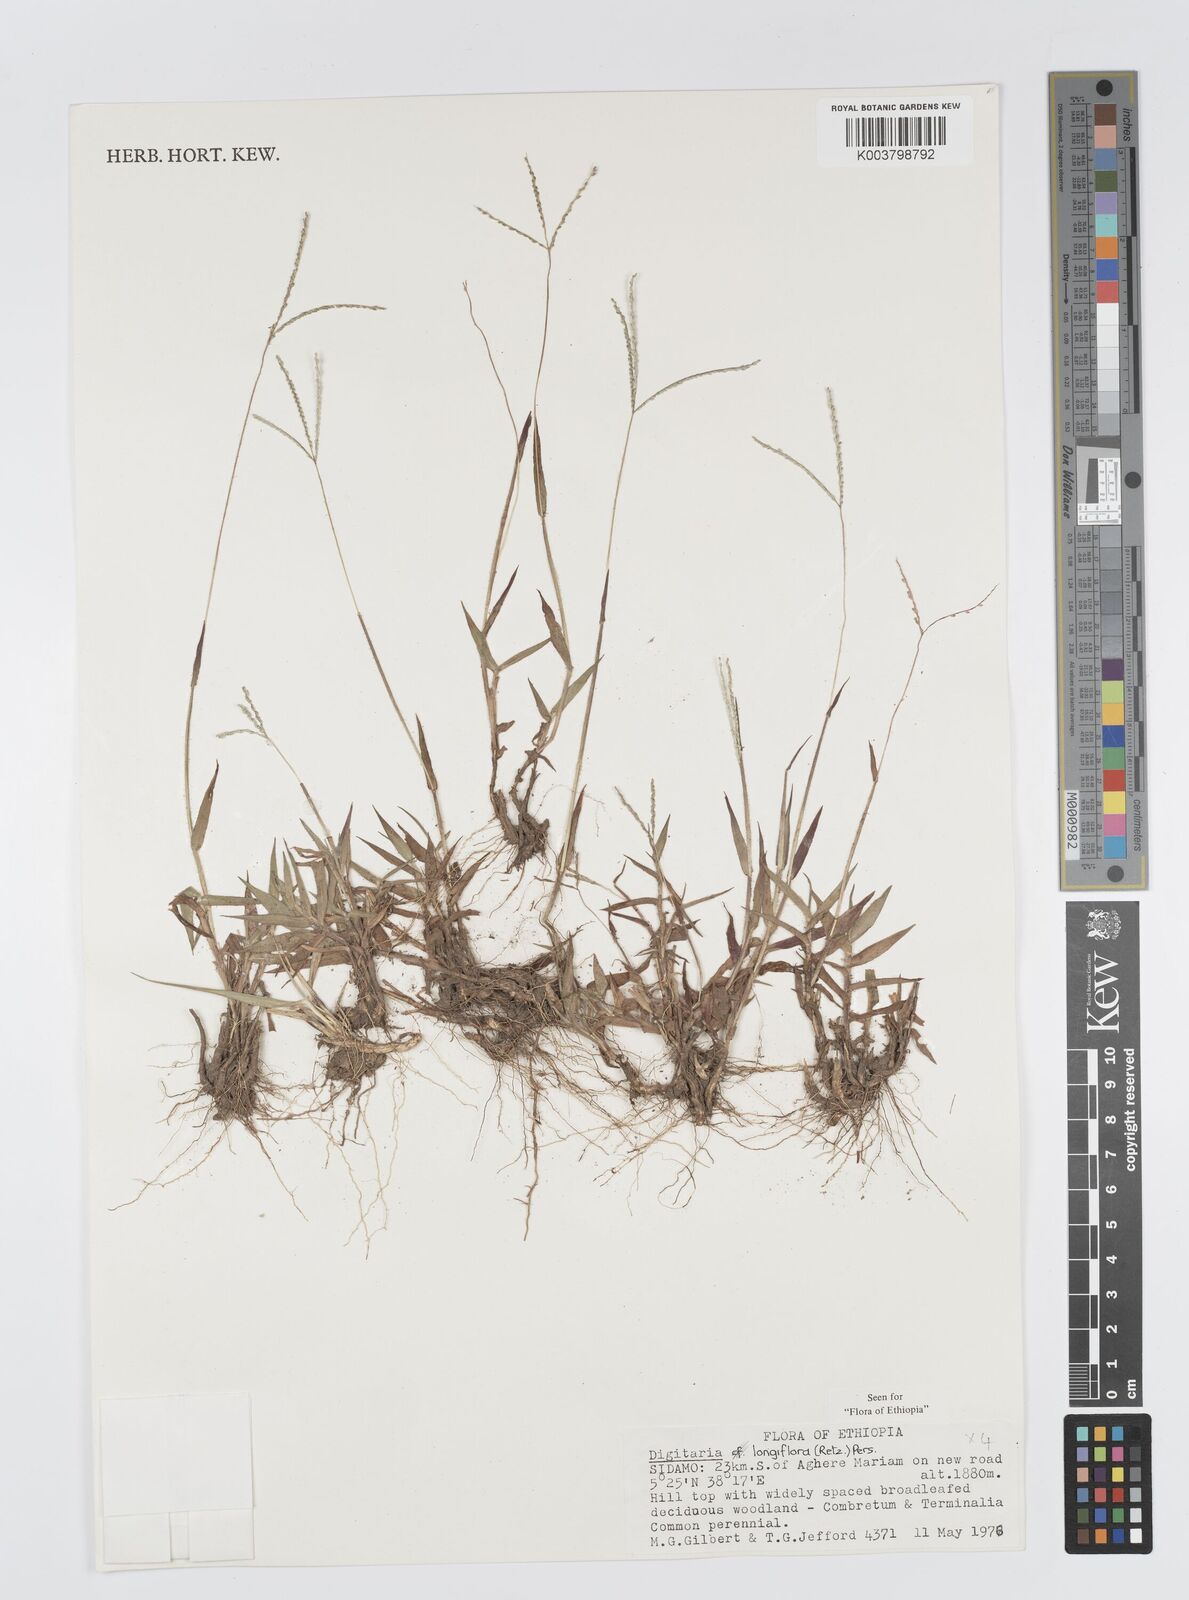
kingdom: Plantae
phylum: Tracheophyta
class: Liliopsida
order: Poales
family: Poaceae
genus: Digitaria
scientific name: Digitaria longiflora
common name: Wire crabgrass
